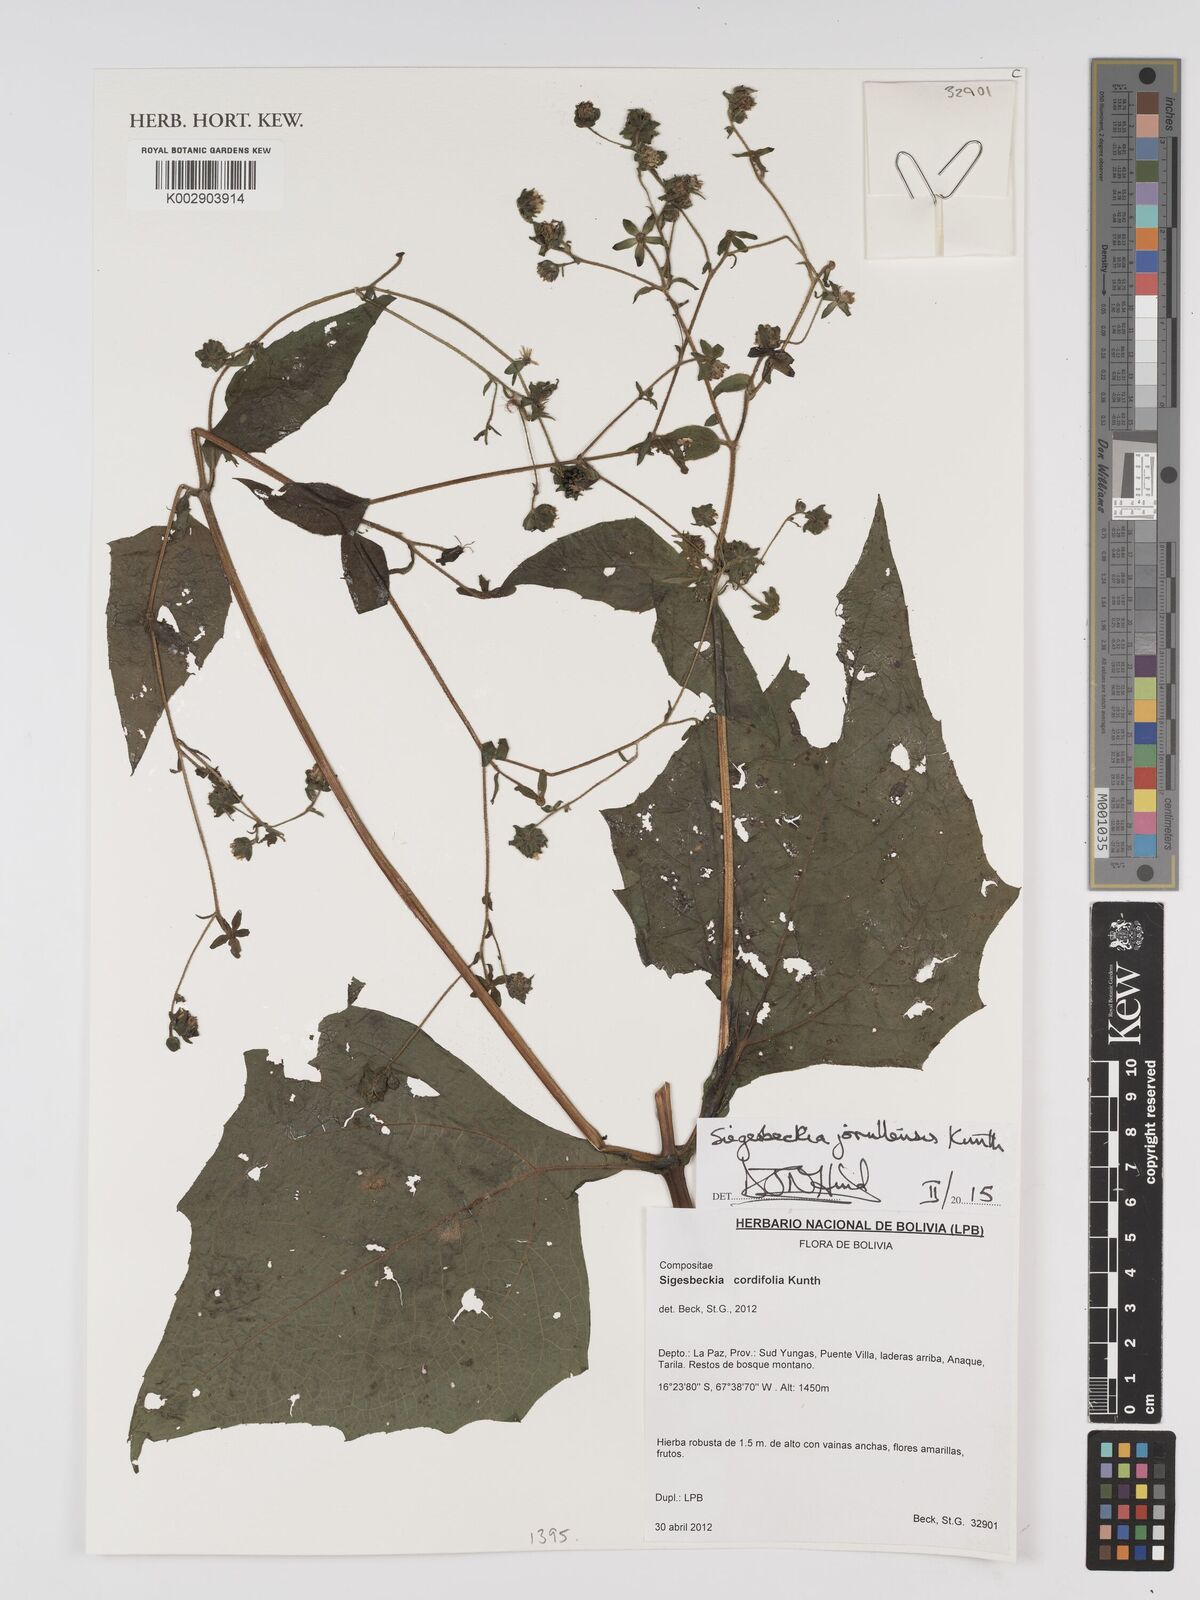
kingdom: Plantae
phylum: Tracheophyta
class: Magnoliopsida
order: Asterales
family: Asteraceae
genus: Sigesbeckia
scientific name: Sigesbeckia jorullensis
